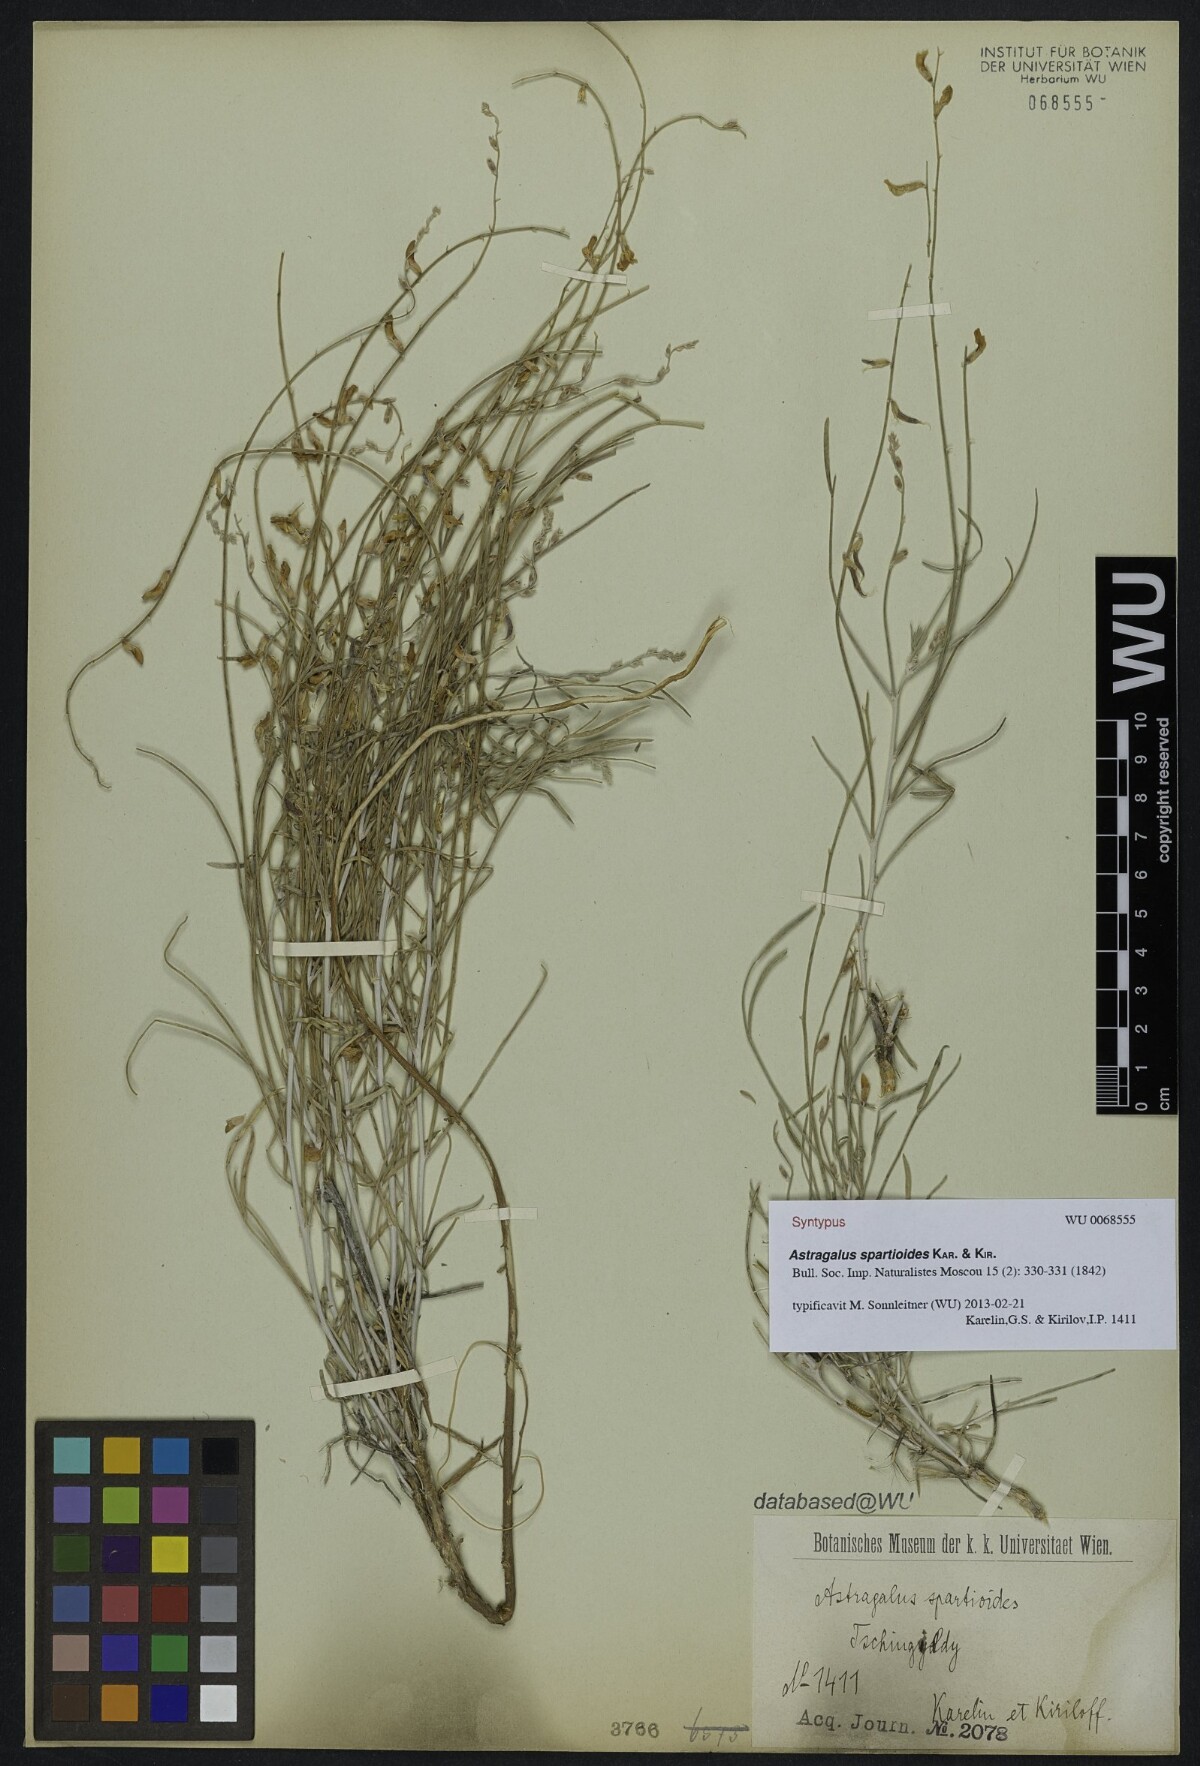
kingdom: Plantae
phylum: Tracheophyta
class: Magnoliopsida
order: Fabales
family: Fabaceae
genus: Astragalus
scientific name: Astragalus spartioides
